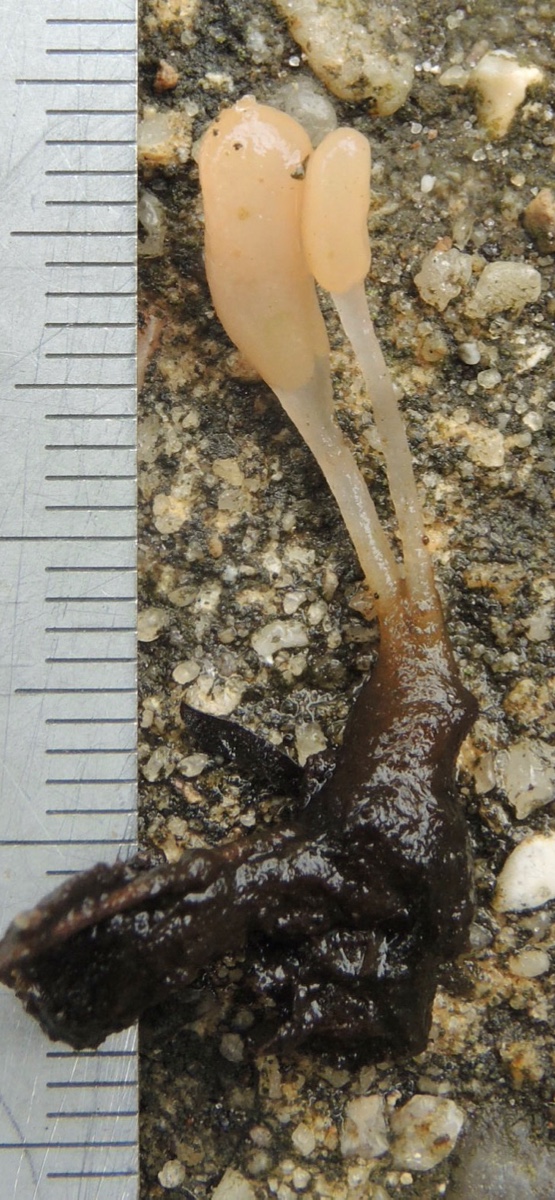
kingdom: Fungi
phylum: Ascomycota
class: Leotiomycetes
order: Helotiales
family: Cenangiaceae
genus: Mitrula
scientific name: Mitrula paludosa
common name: gul nøkketunge
